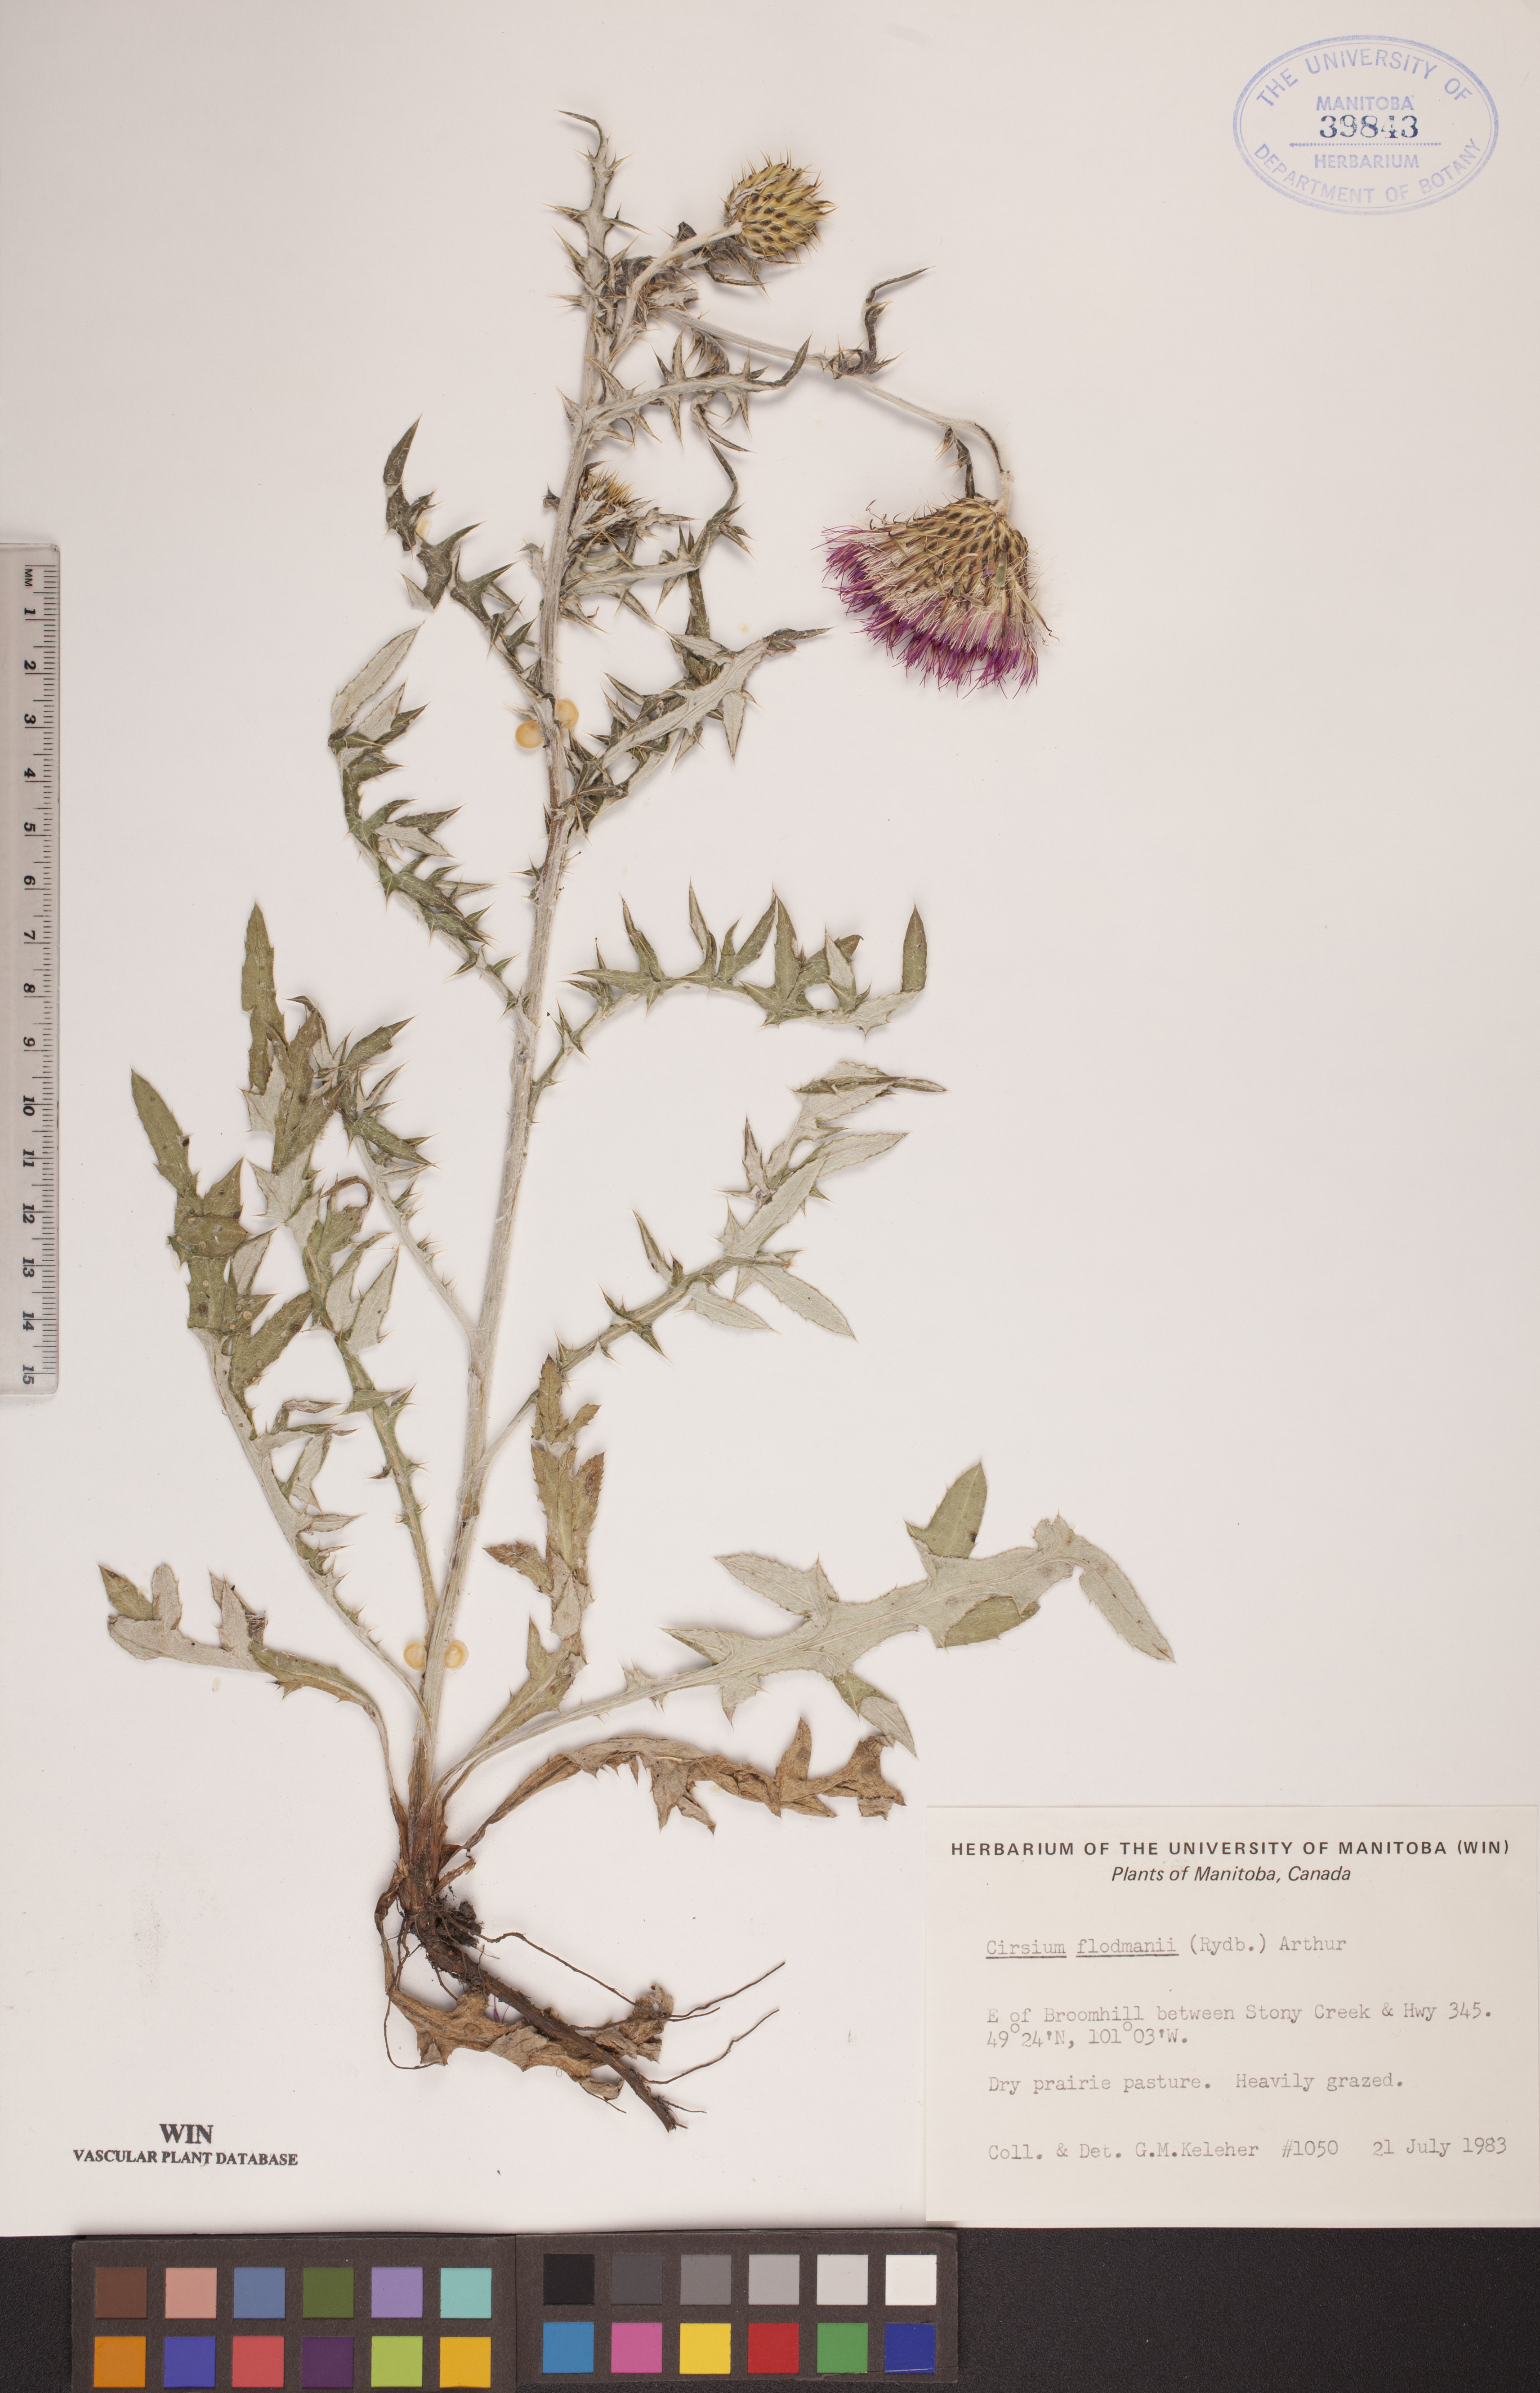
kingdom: Plantae
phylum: Tracheophyta
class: Magnoliopsida
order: Asterales
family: Asteraceae
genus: Cirsium
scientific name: Cirsium flodmanii
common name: Flodman's thistle
